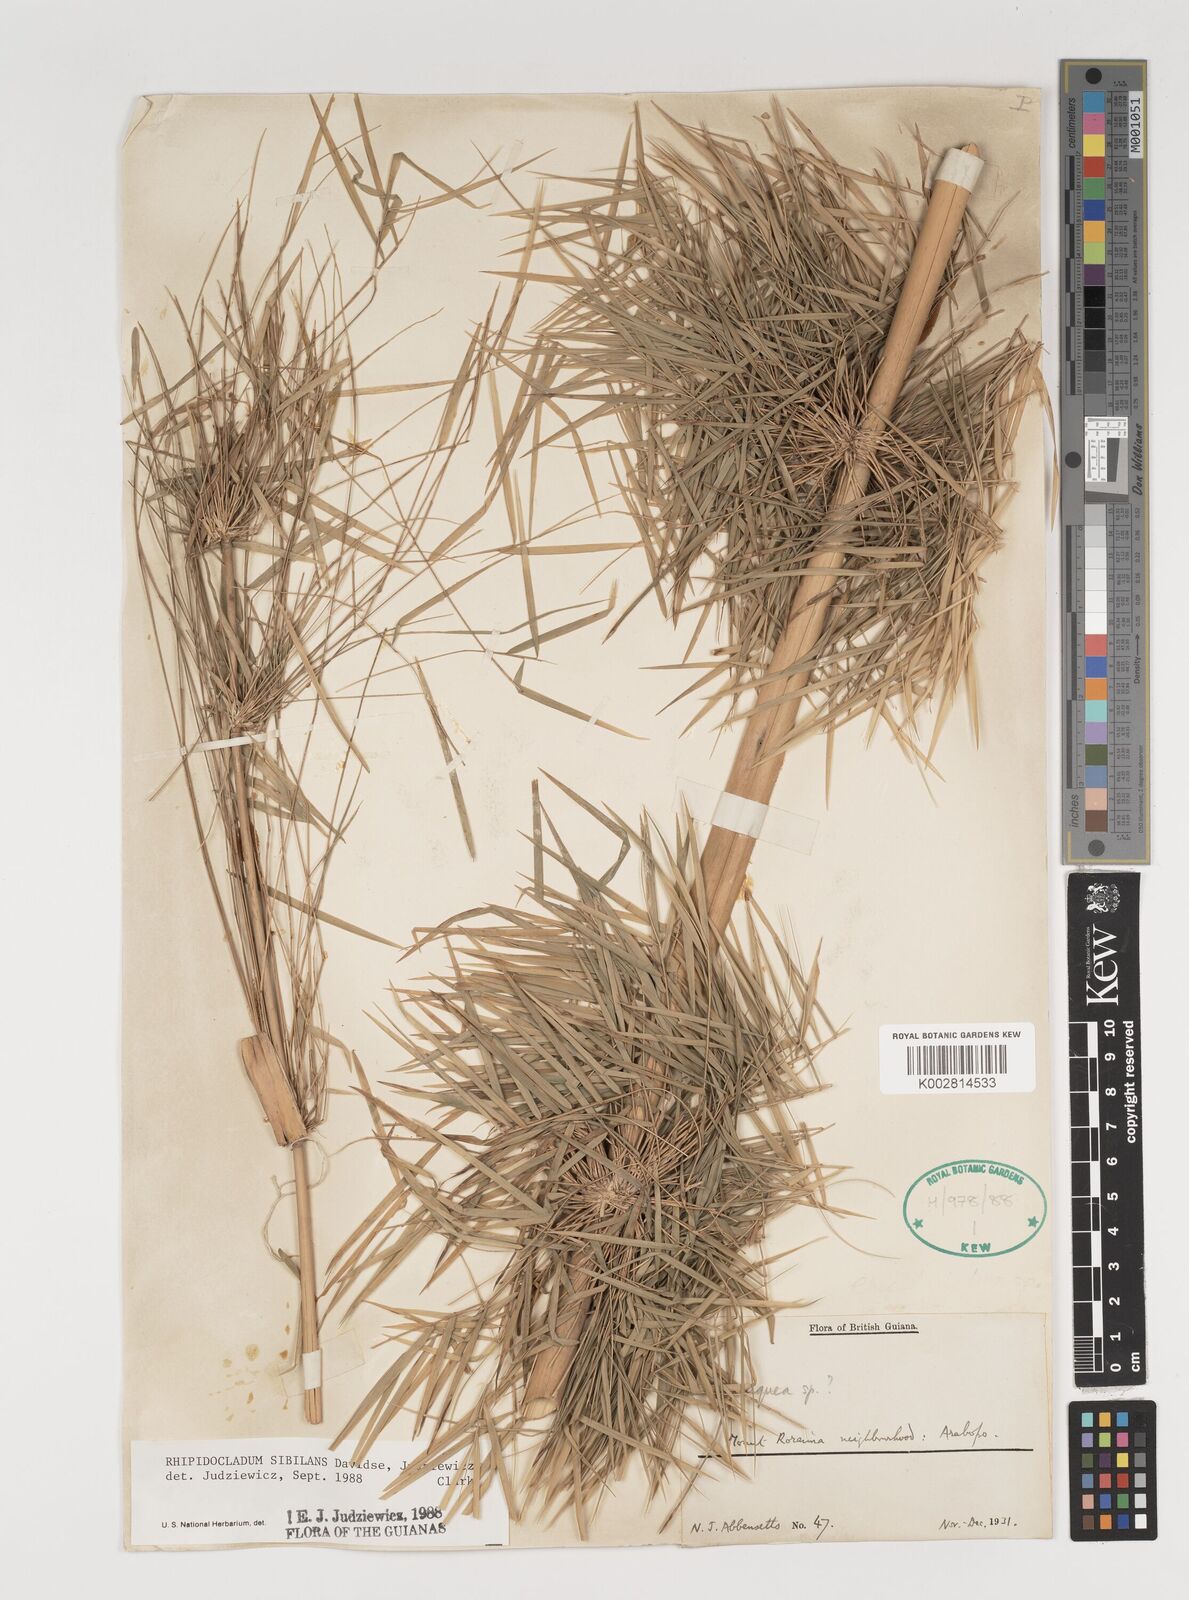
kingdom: Plantae
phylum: Tracheophyta
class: Liliopsida
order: Poales
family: Poaceae
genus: Rhipidocladum
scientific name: Rhipidocladum sibilans
